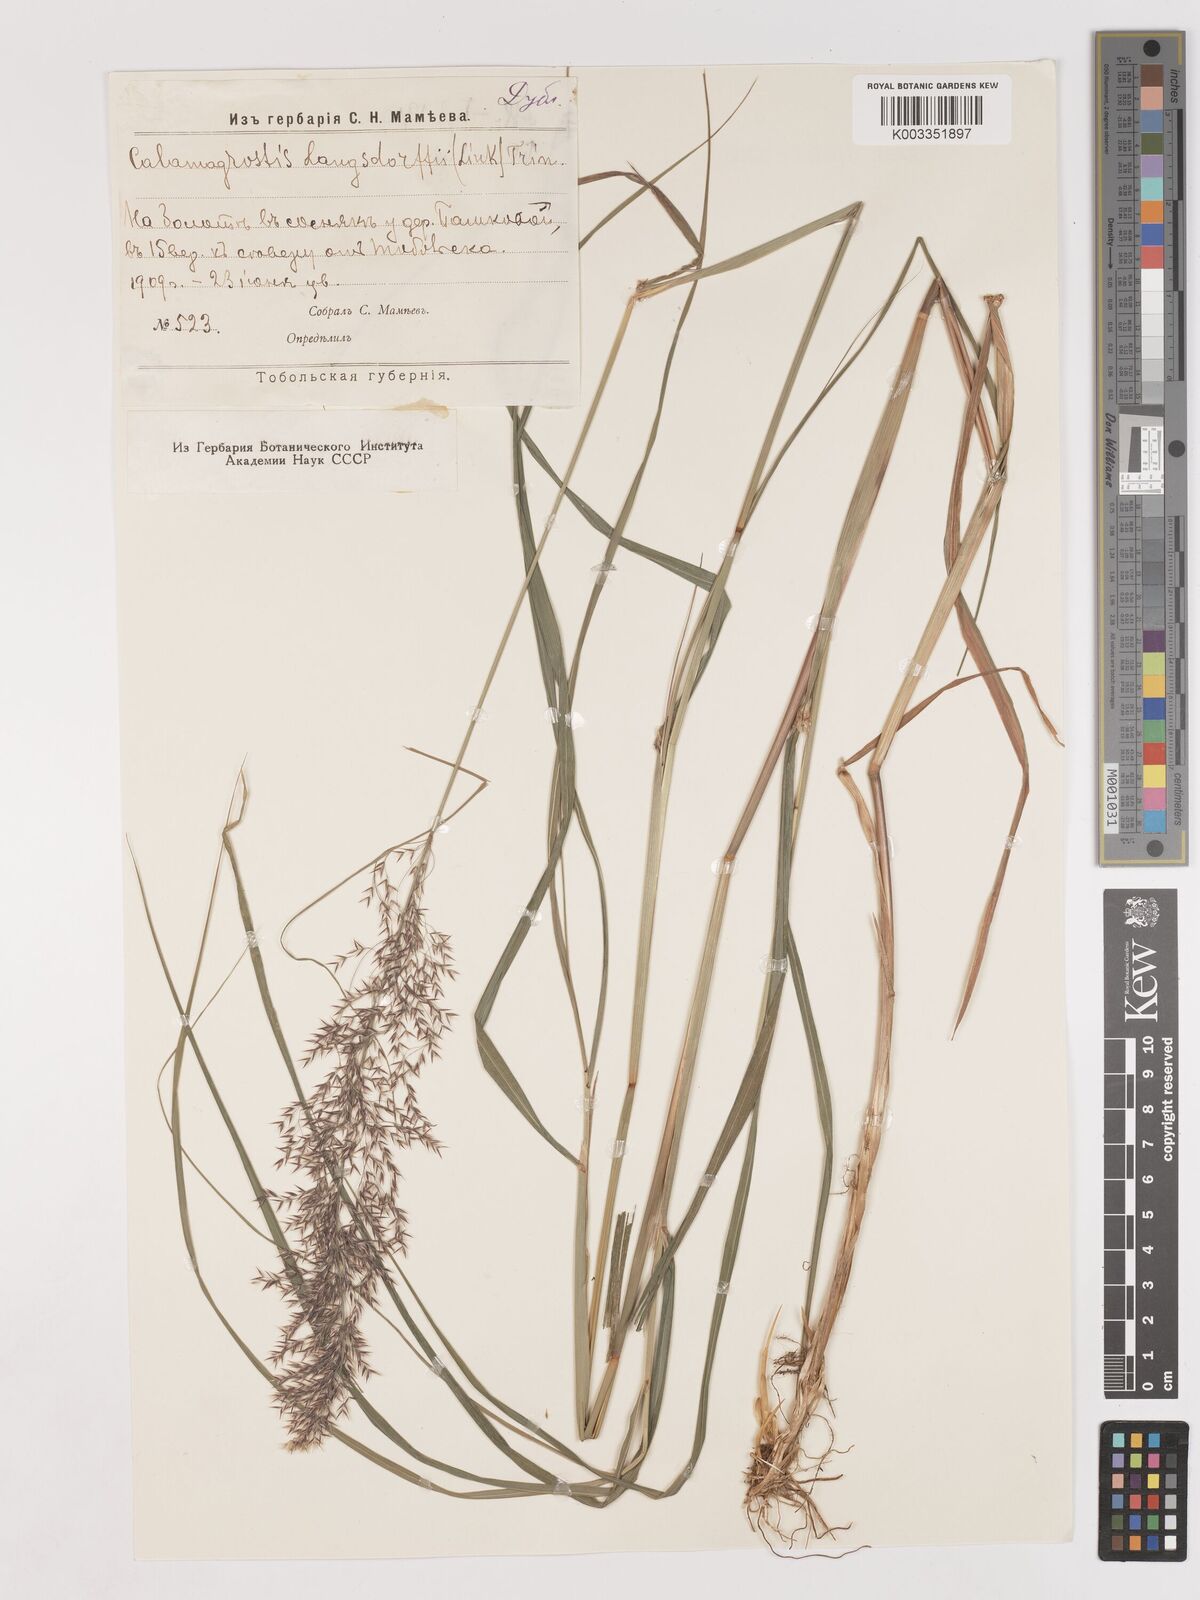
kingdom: Plantae
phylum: Tracheophyta
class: Liliopsida
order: Poales
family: Poaceae
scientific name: Poaceae
